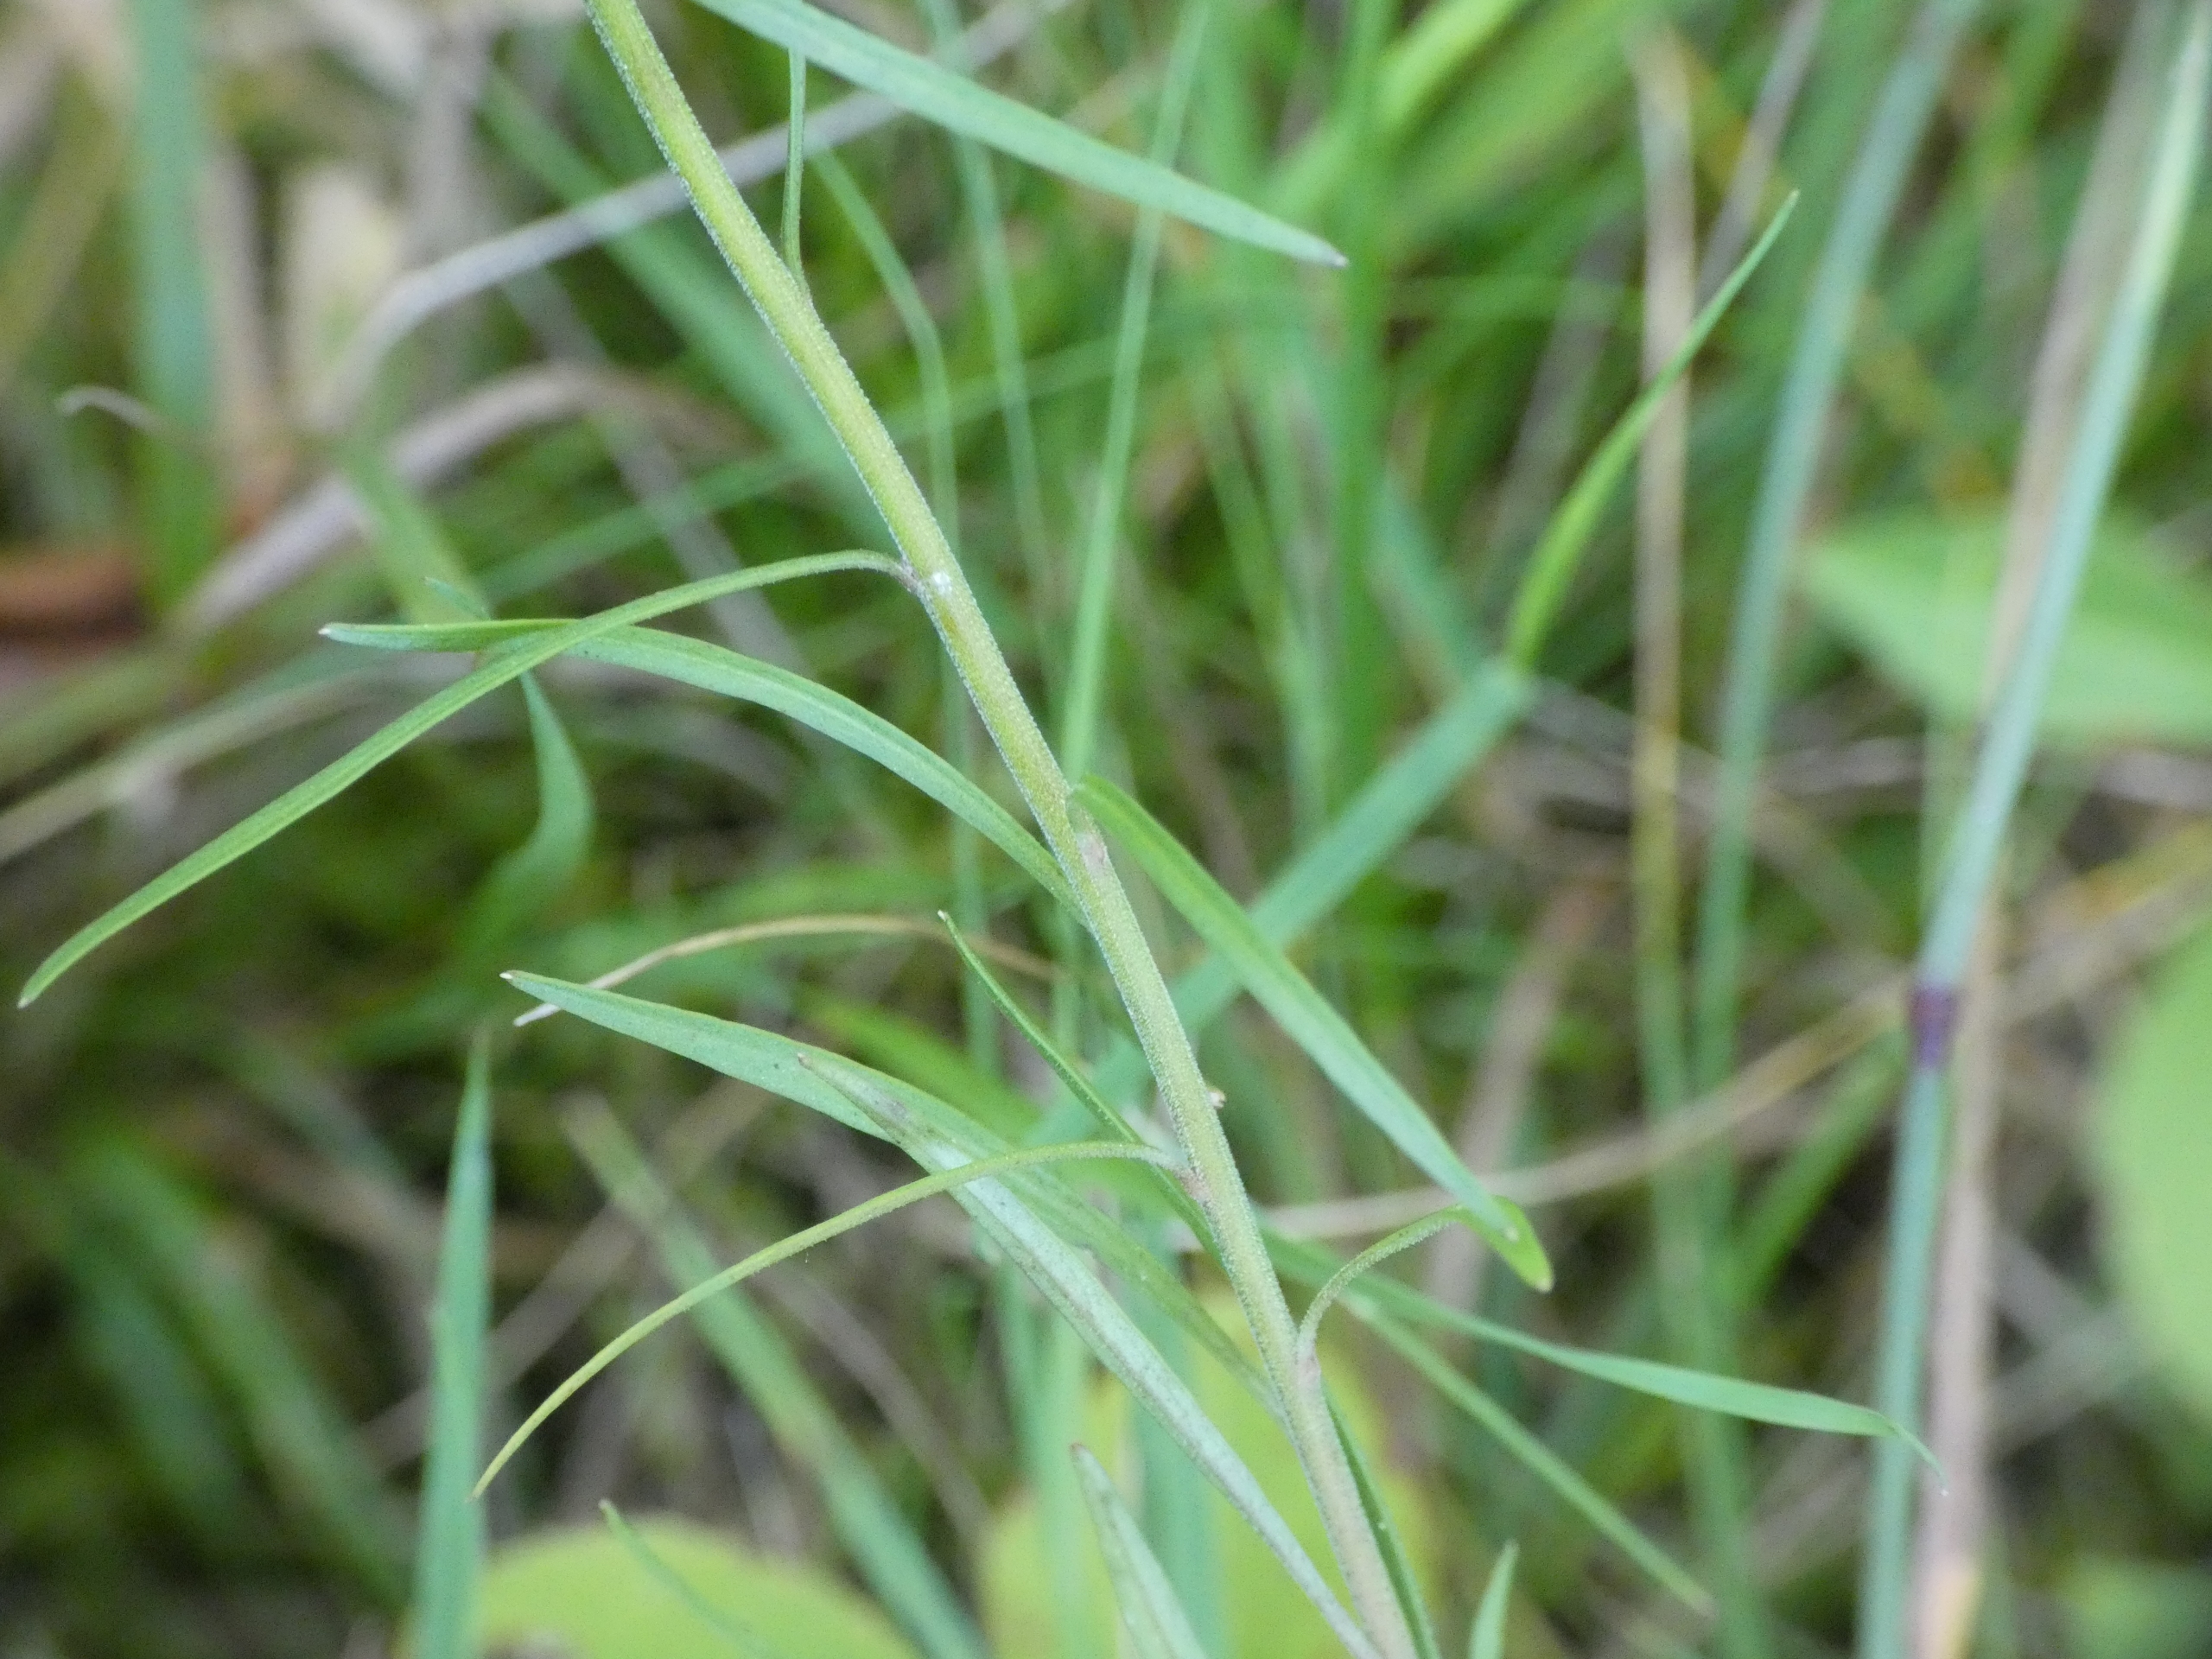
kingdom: Plantae
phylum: Tracheophyta
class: Magnoliopsida
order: Asterales
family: Campanulaceae
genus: Campanula
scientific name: Campanula rotundifolia
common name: Liden klokke
